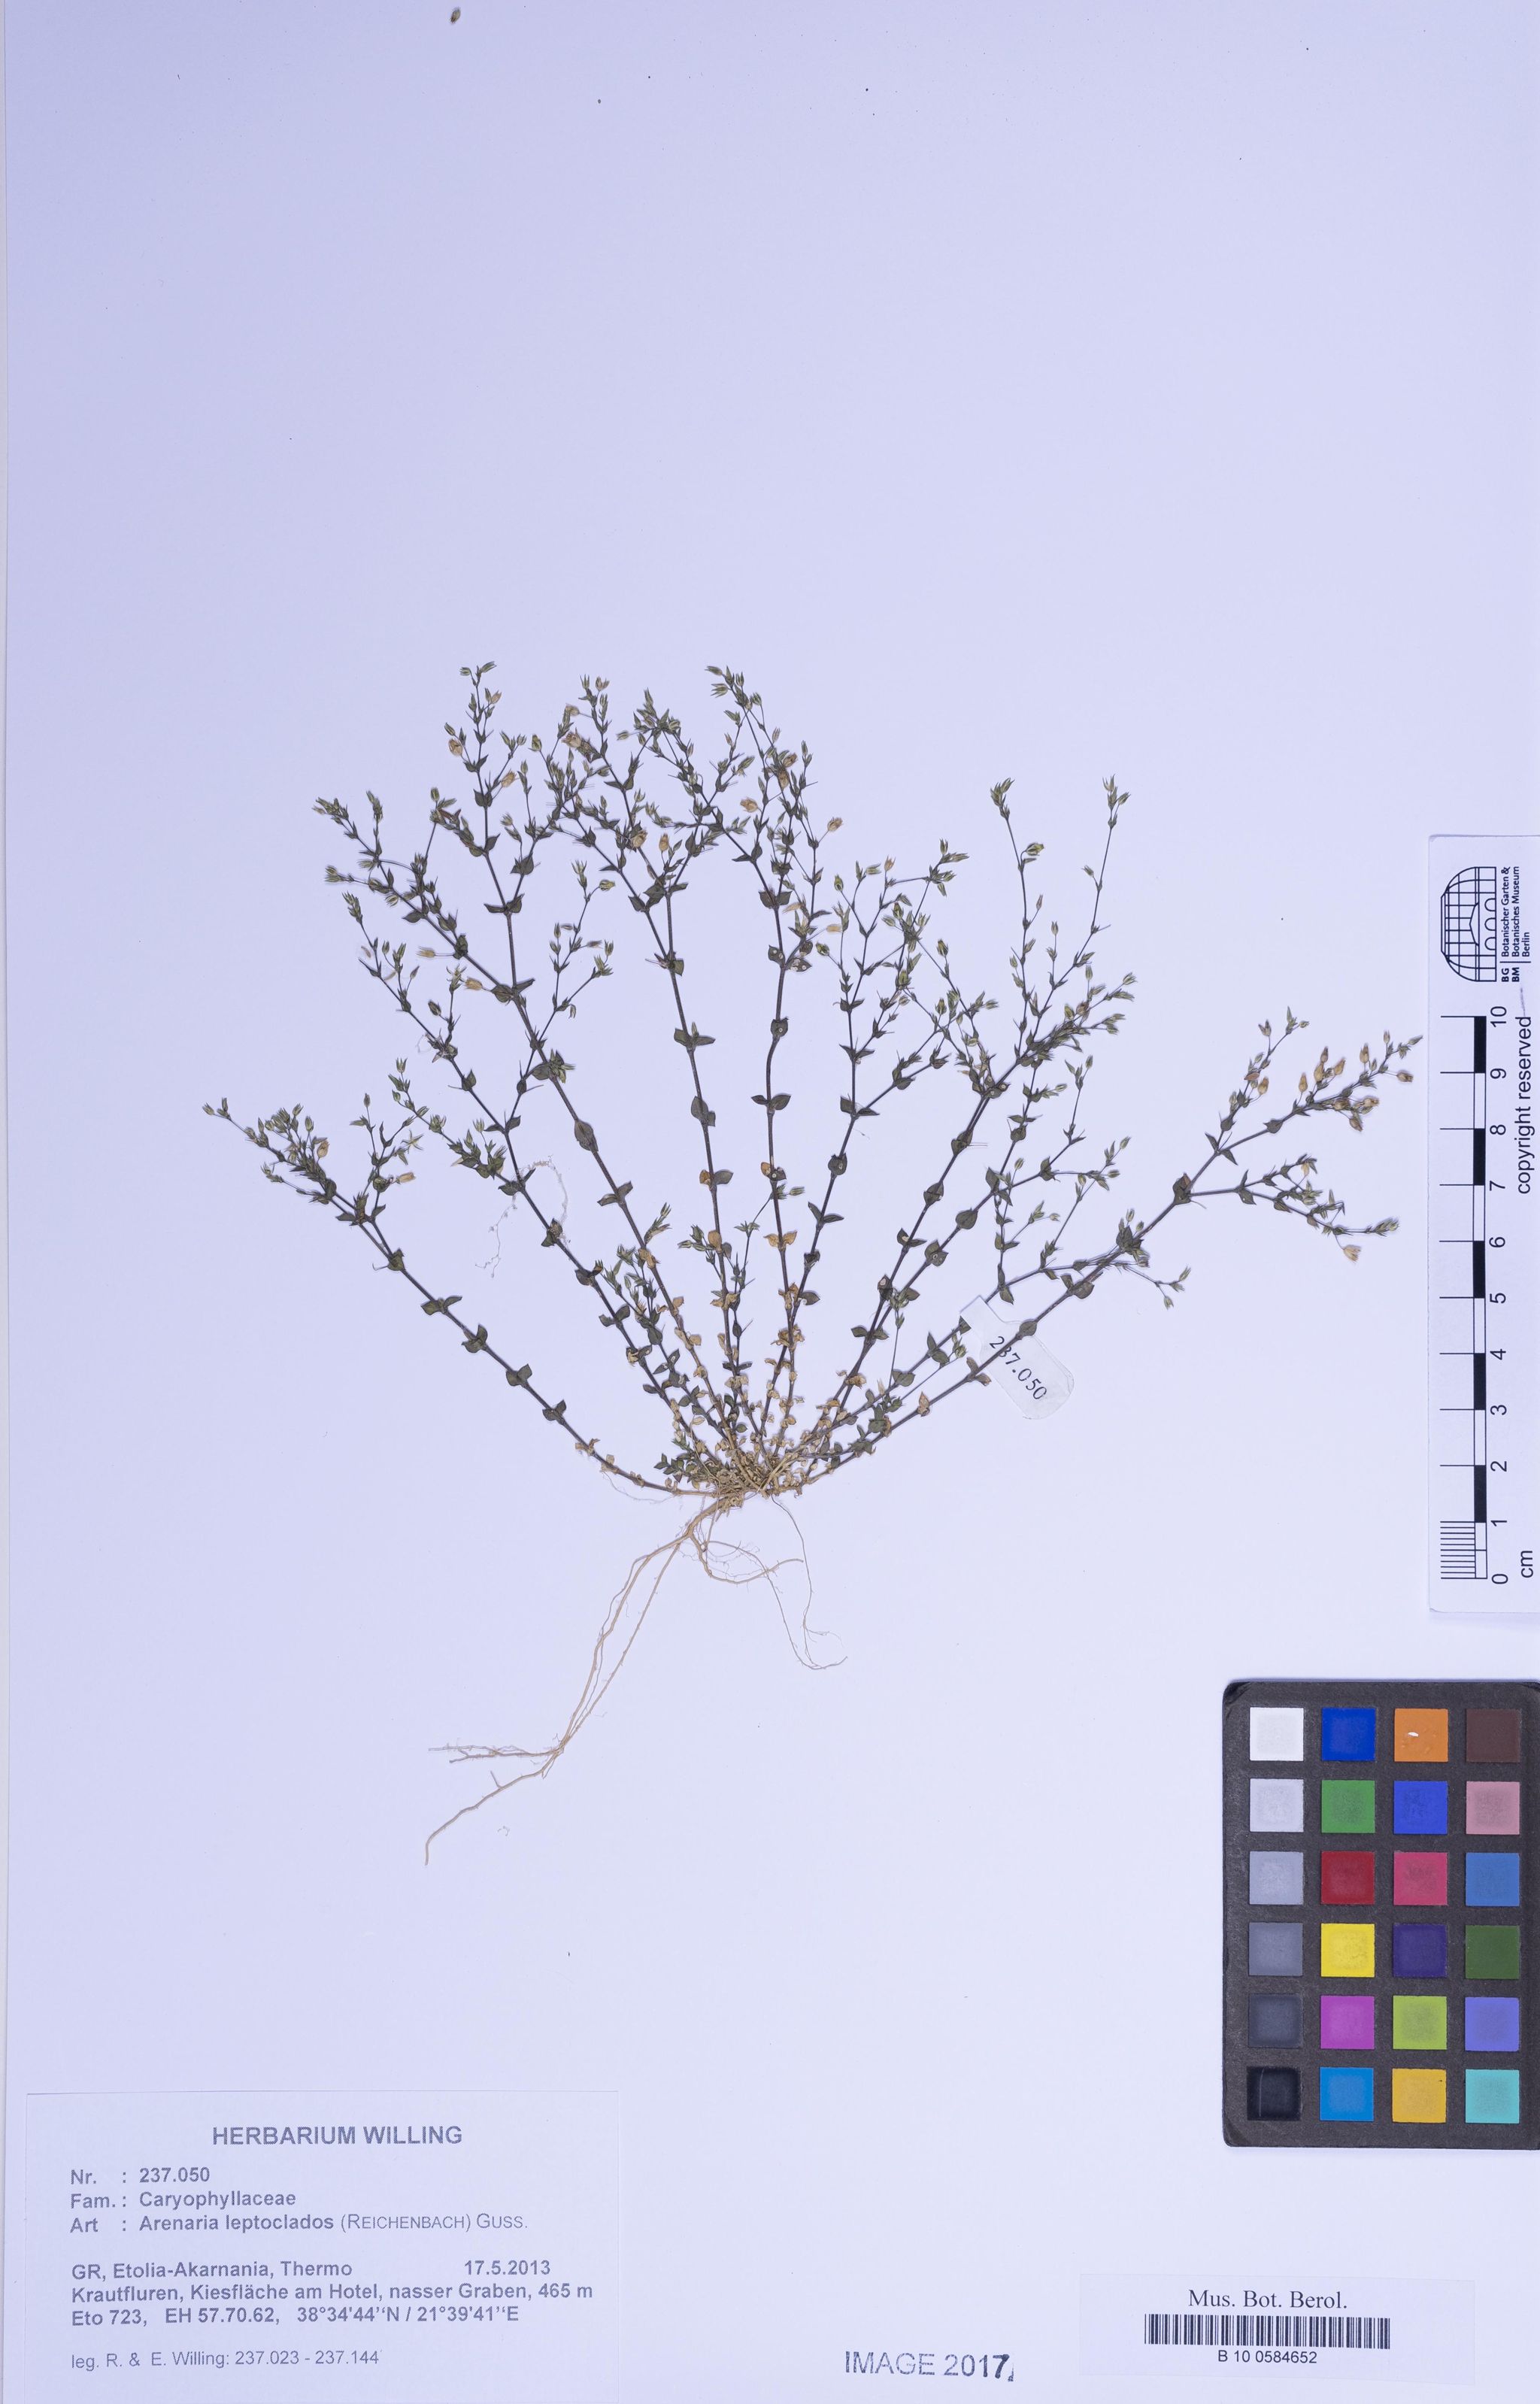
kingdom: Plantae
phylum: Tracheophyta
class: Magnoliopsida
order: Caryophyllales
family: Caryophyllaceae
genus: Arenaria
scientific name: Arenaria leptoclados
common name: Thyme-leaved sandwort
